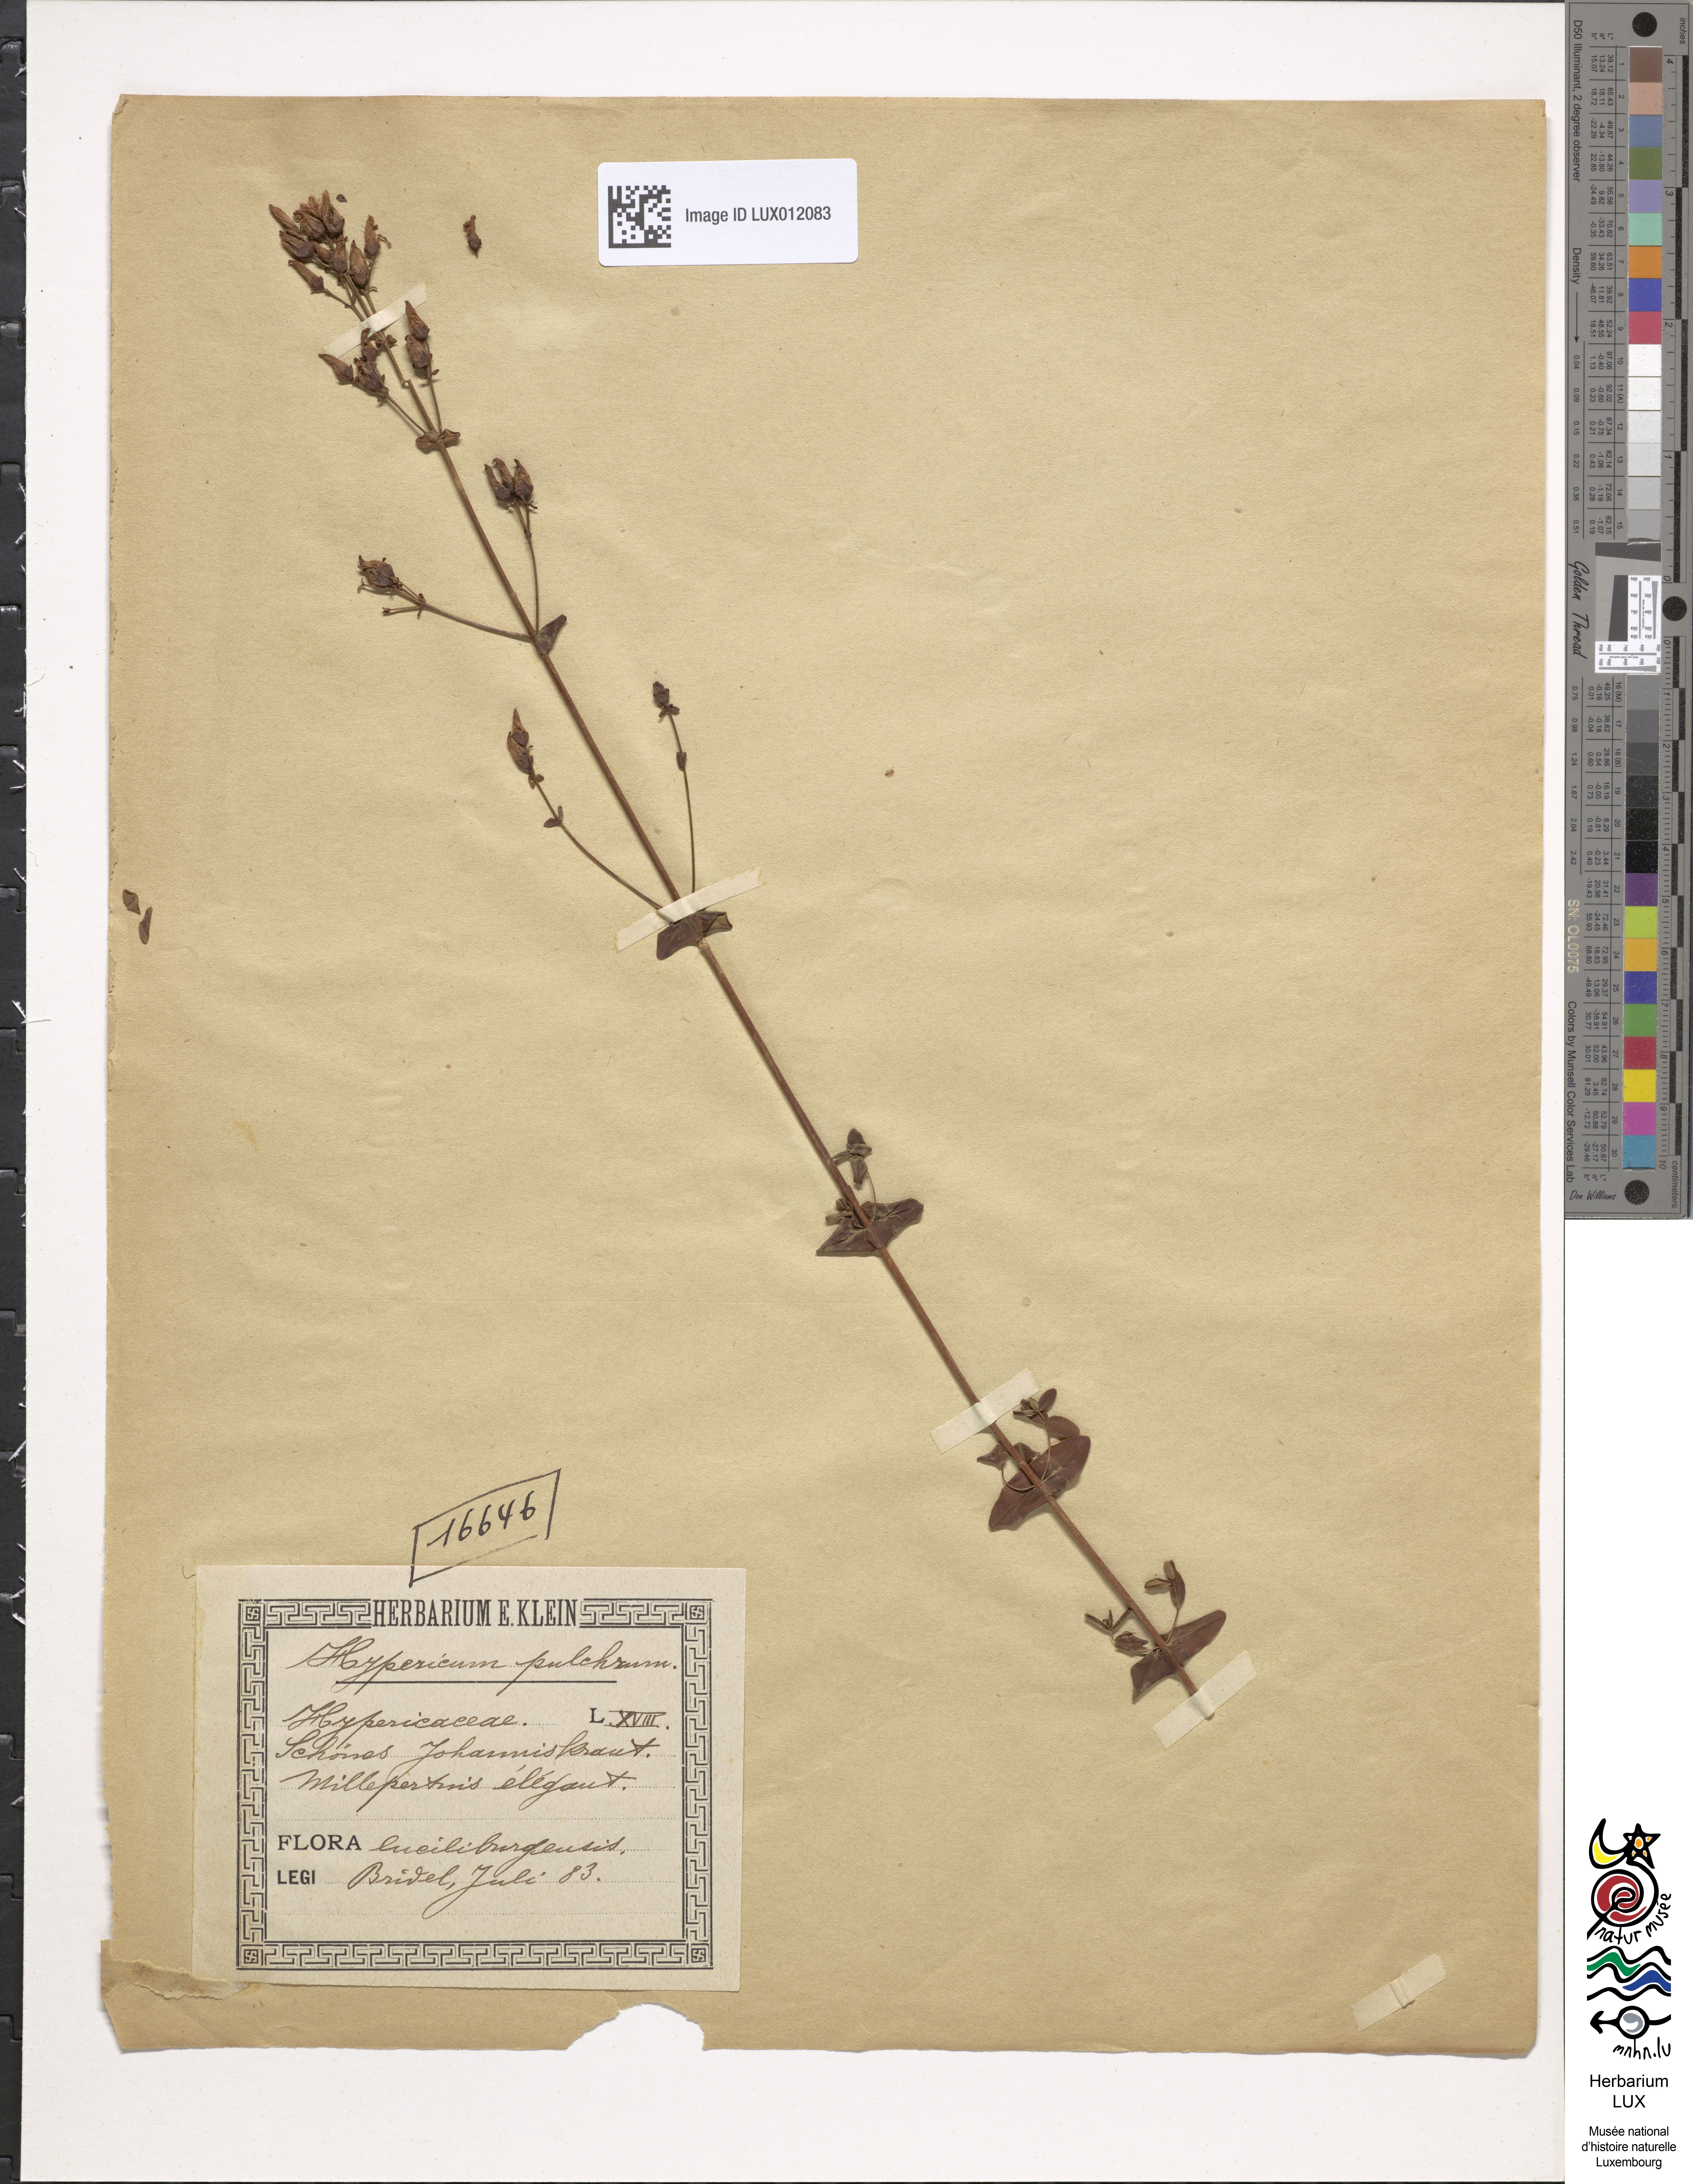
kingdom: Plantae
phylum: Tracheophyta
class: Magnoliopsida
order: Malpighiales
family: Hypericaceae
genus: Hypericum
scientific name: Hypericum pulchrum
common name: Slender st. john's-wort
